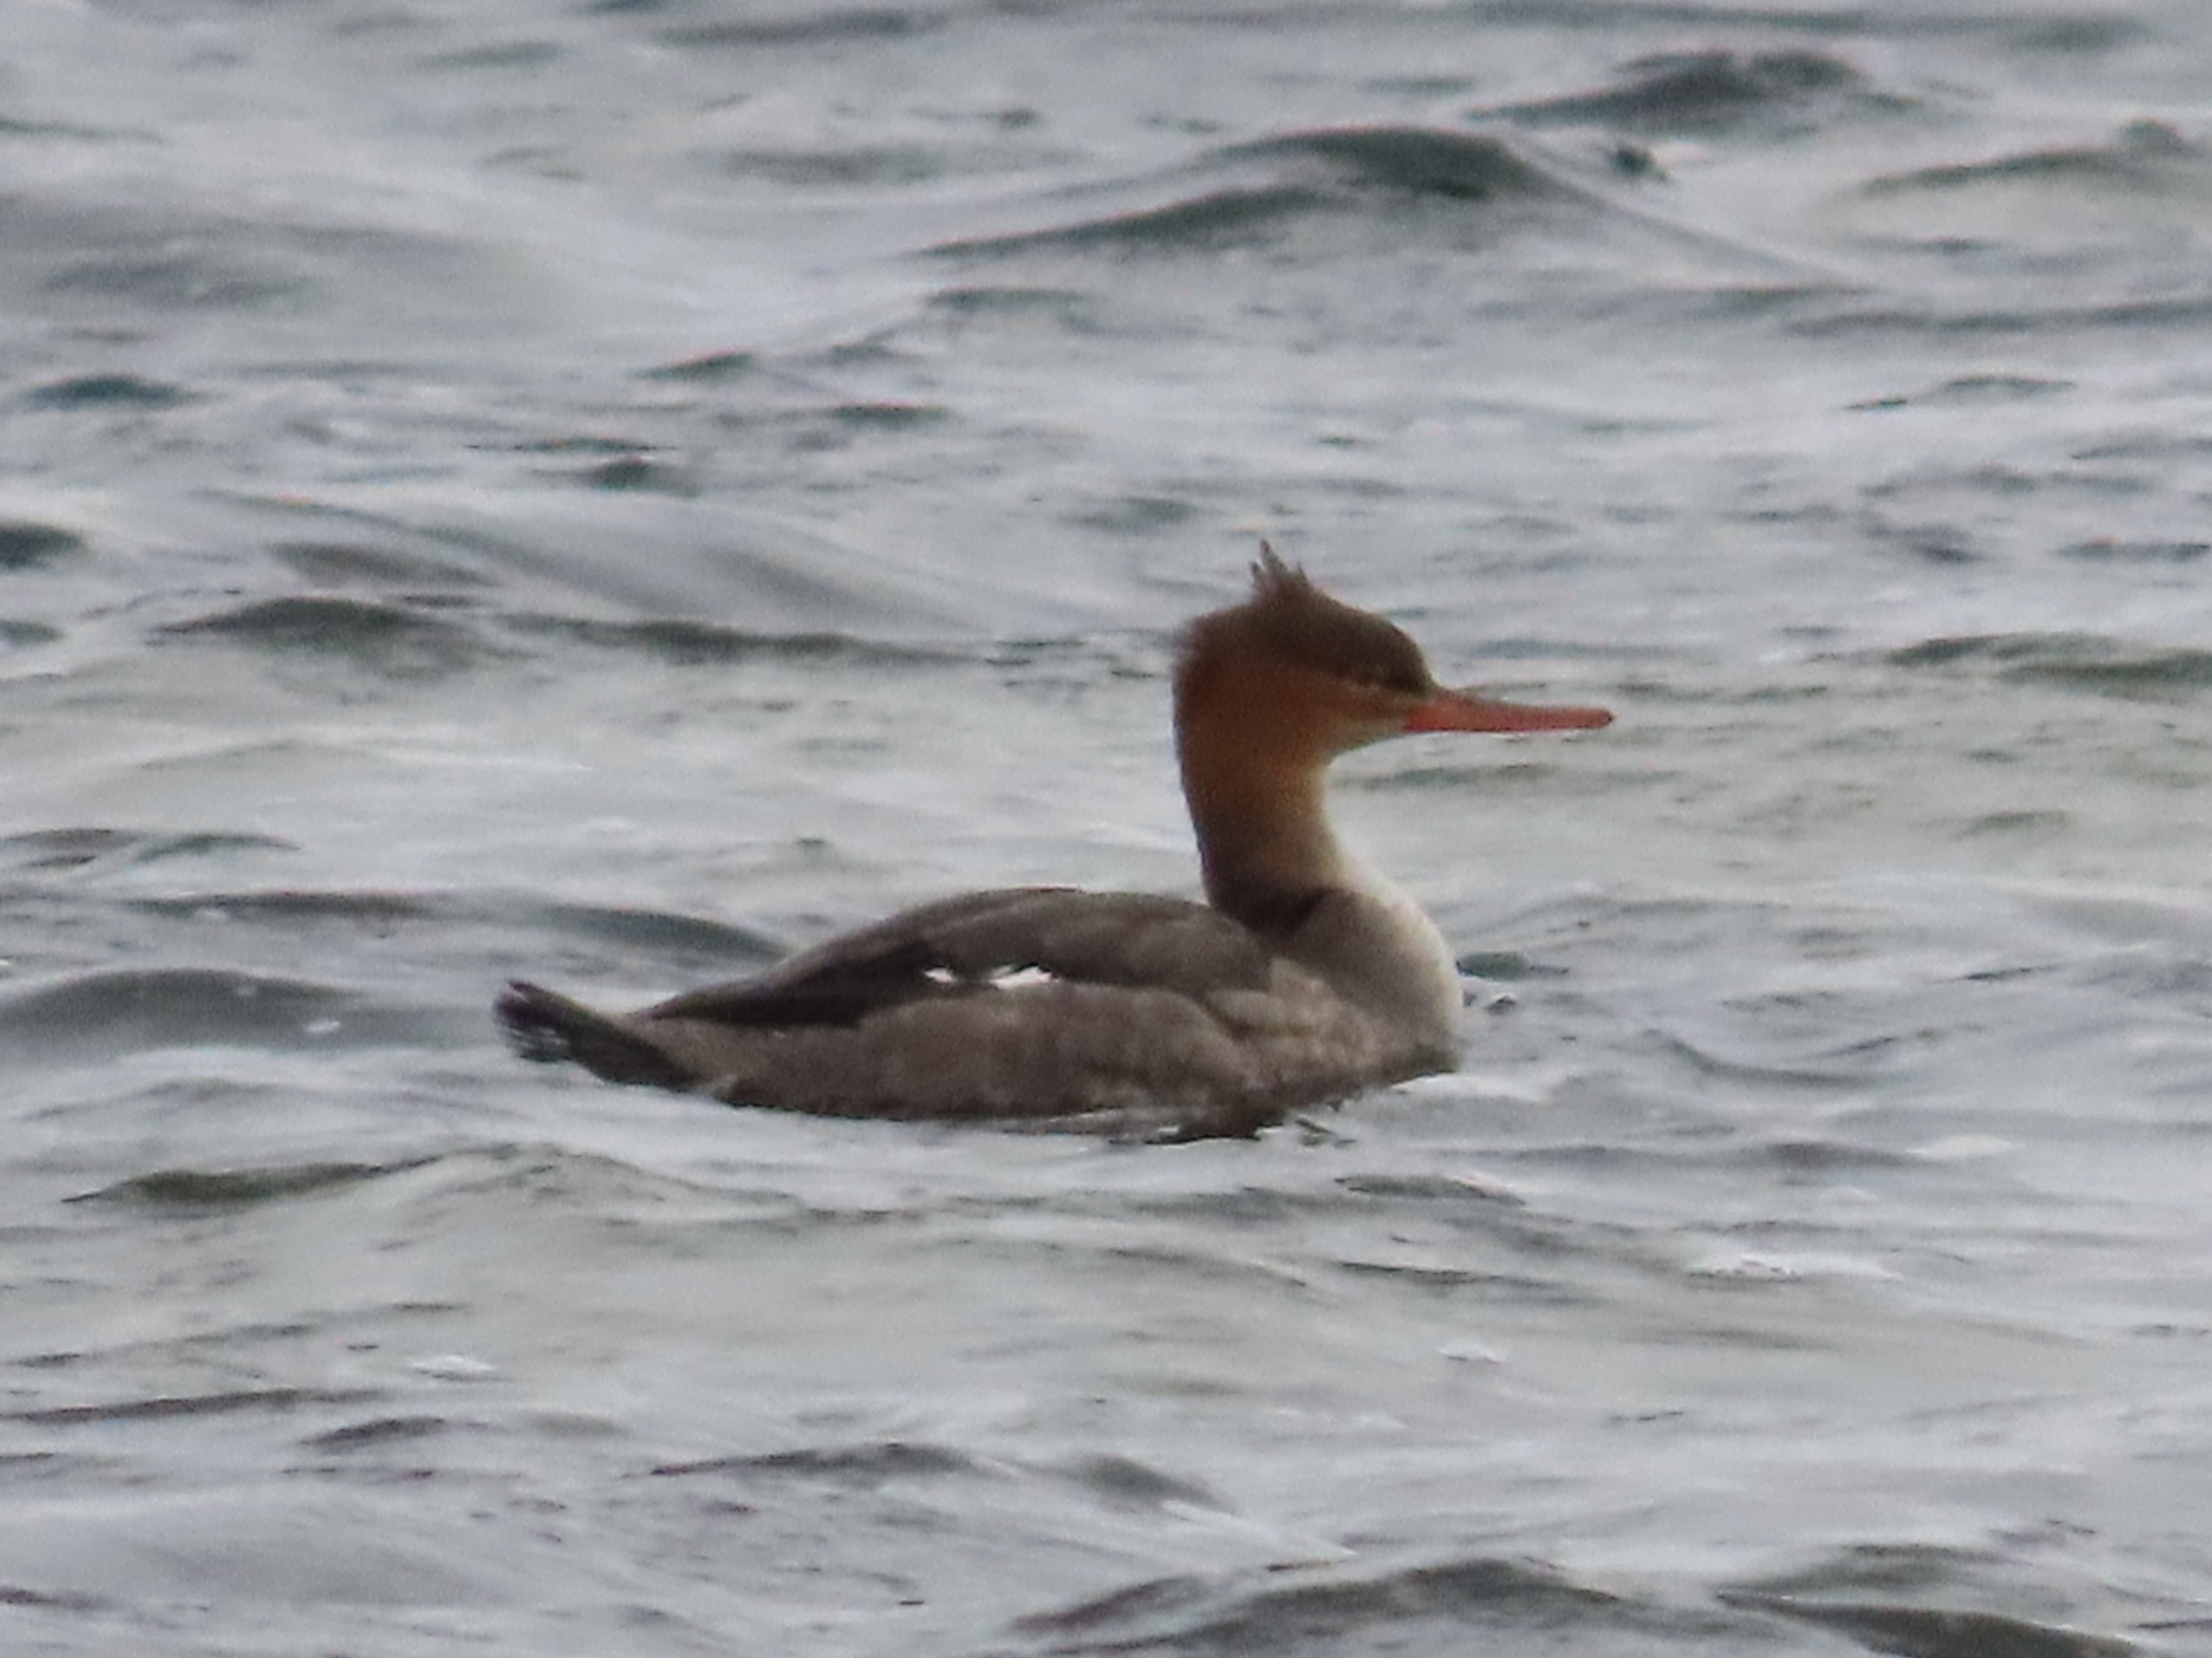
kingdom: Animalia
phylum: Chordata
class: Aves
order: Anseriformes
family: Anatidae
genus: Mergus
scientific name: Mergus serrator
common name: Toppet skallesluger
